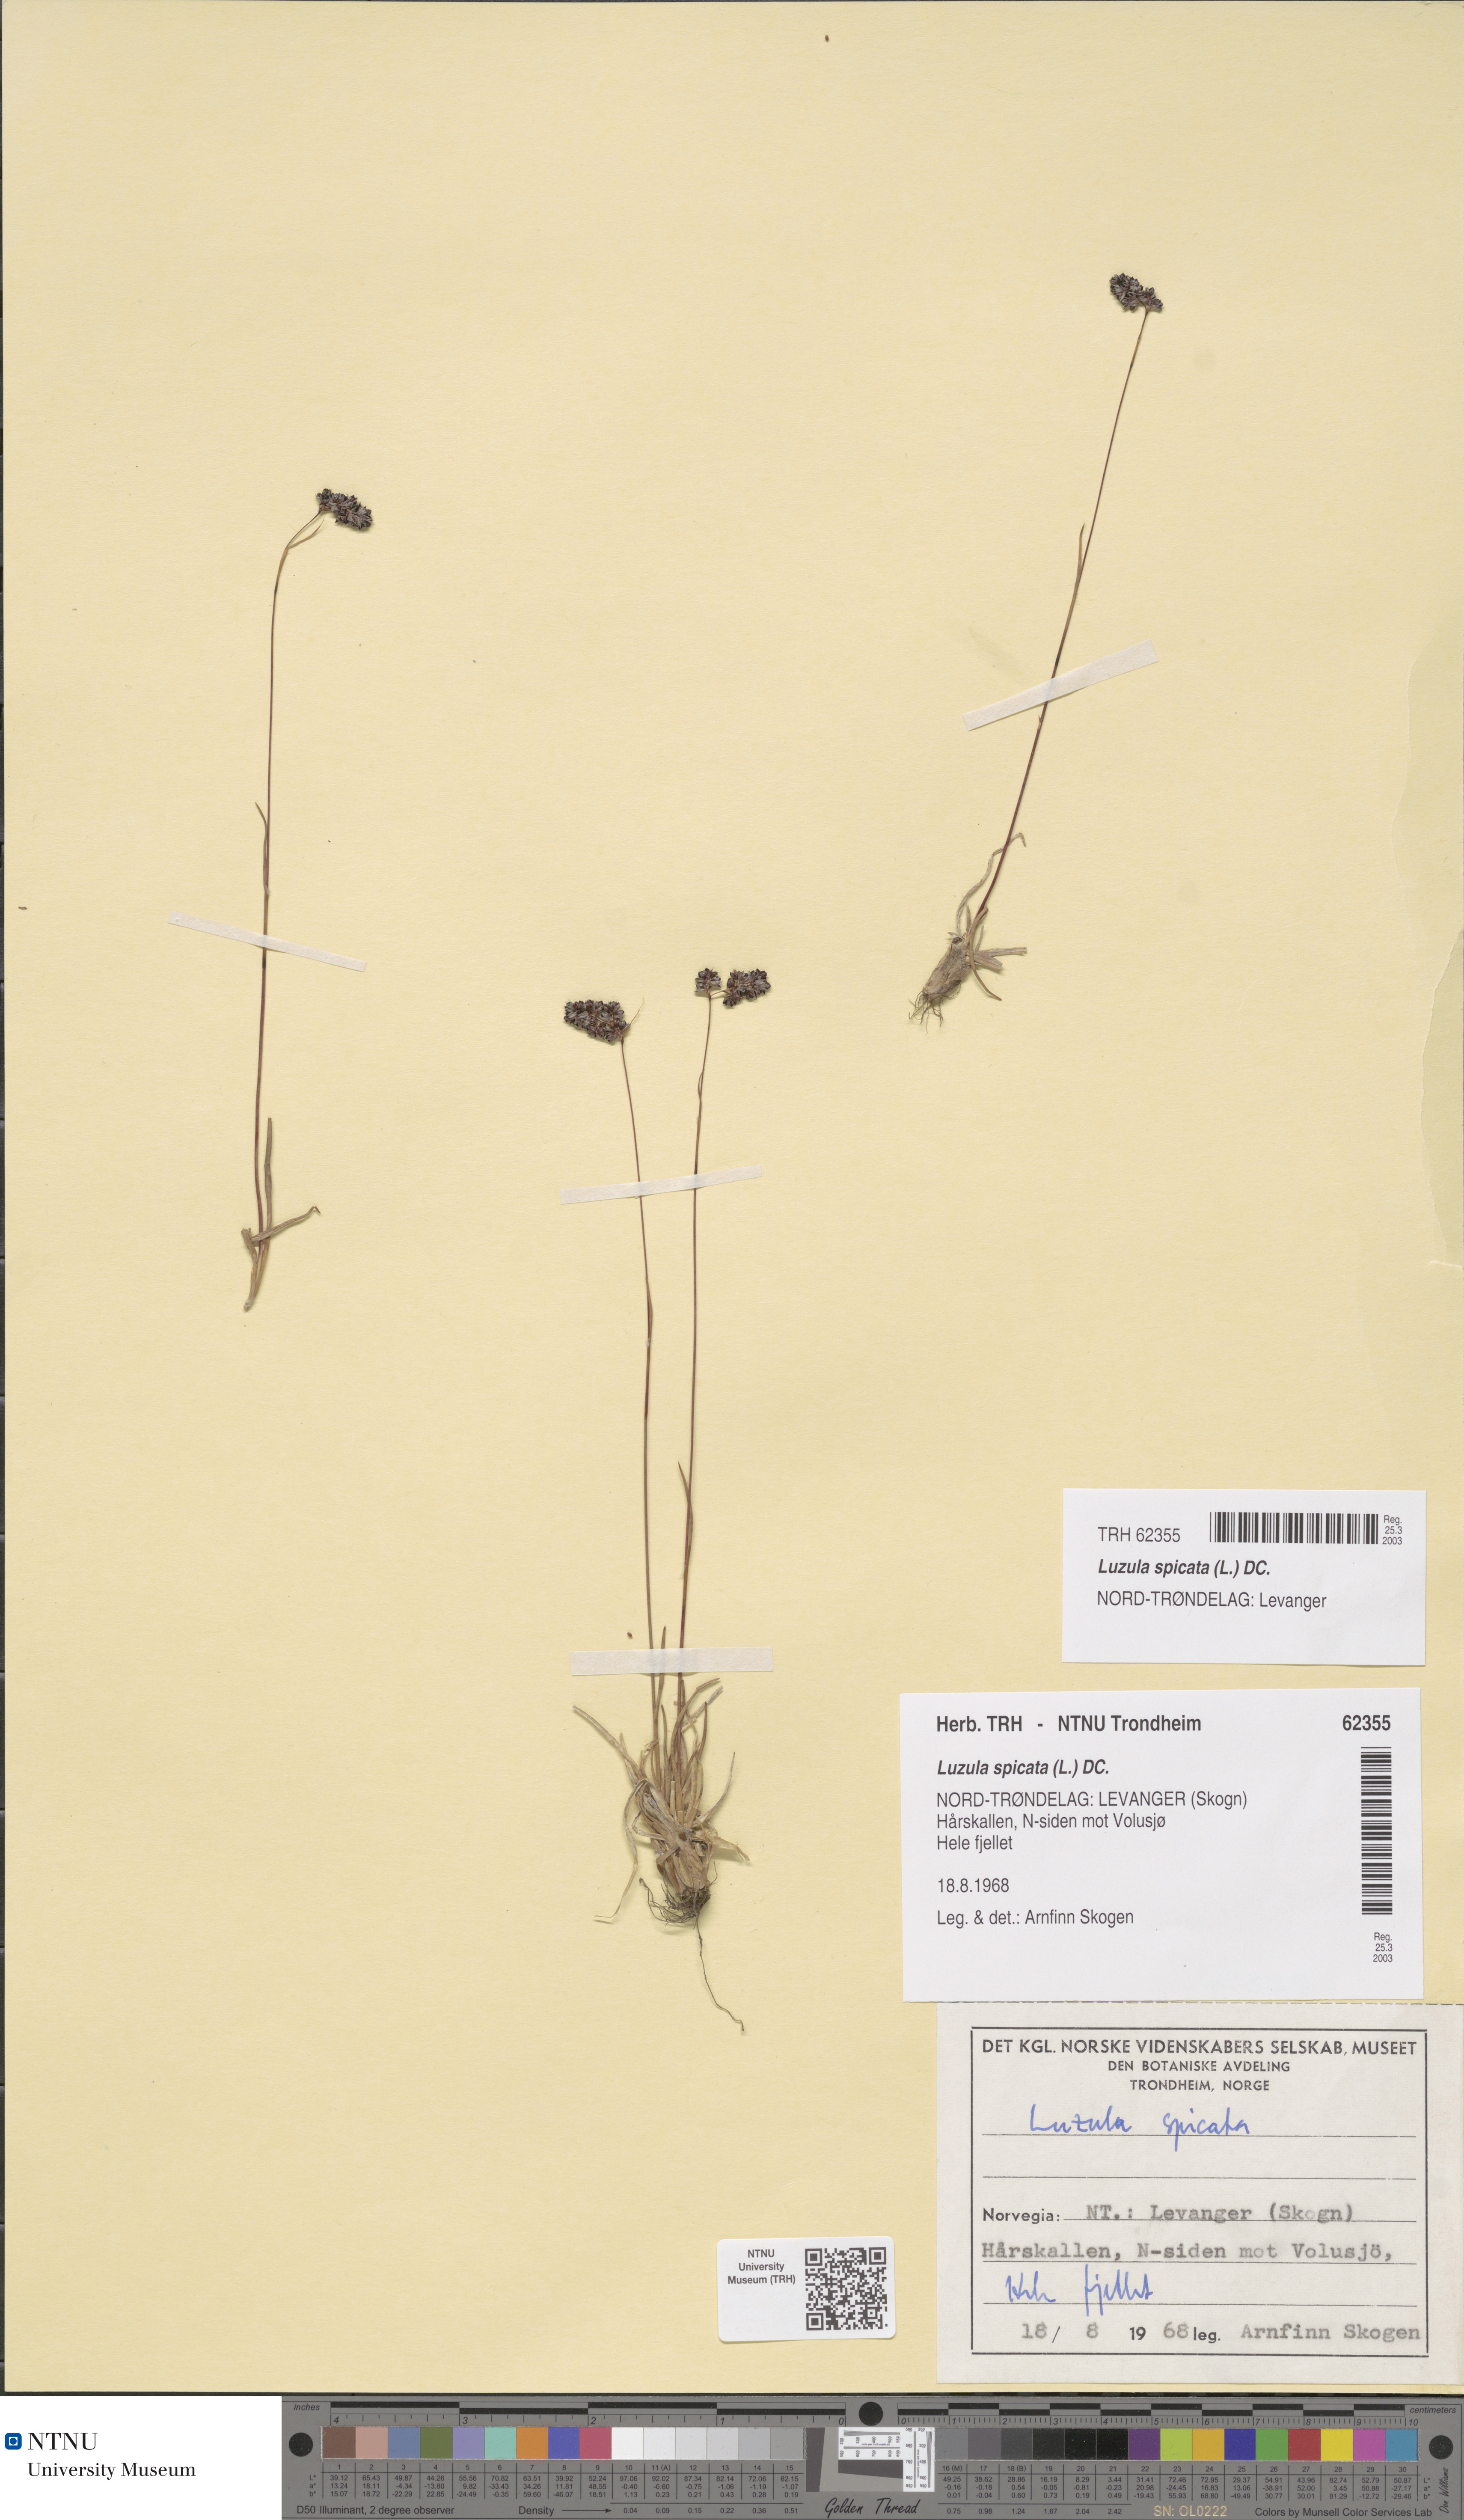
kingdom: Plantae
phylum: Tracheophyta
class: Liliopsida
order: Poales
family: Juncaceae
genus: Luzula
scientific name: Luzula spicata
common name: Spiked wood-rush
